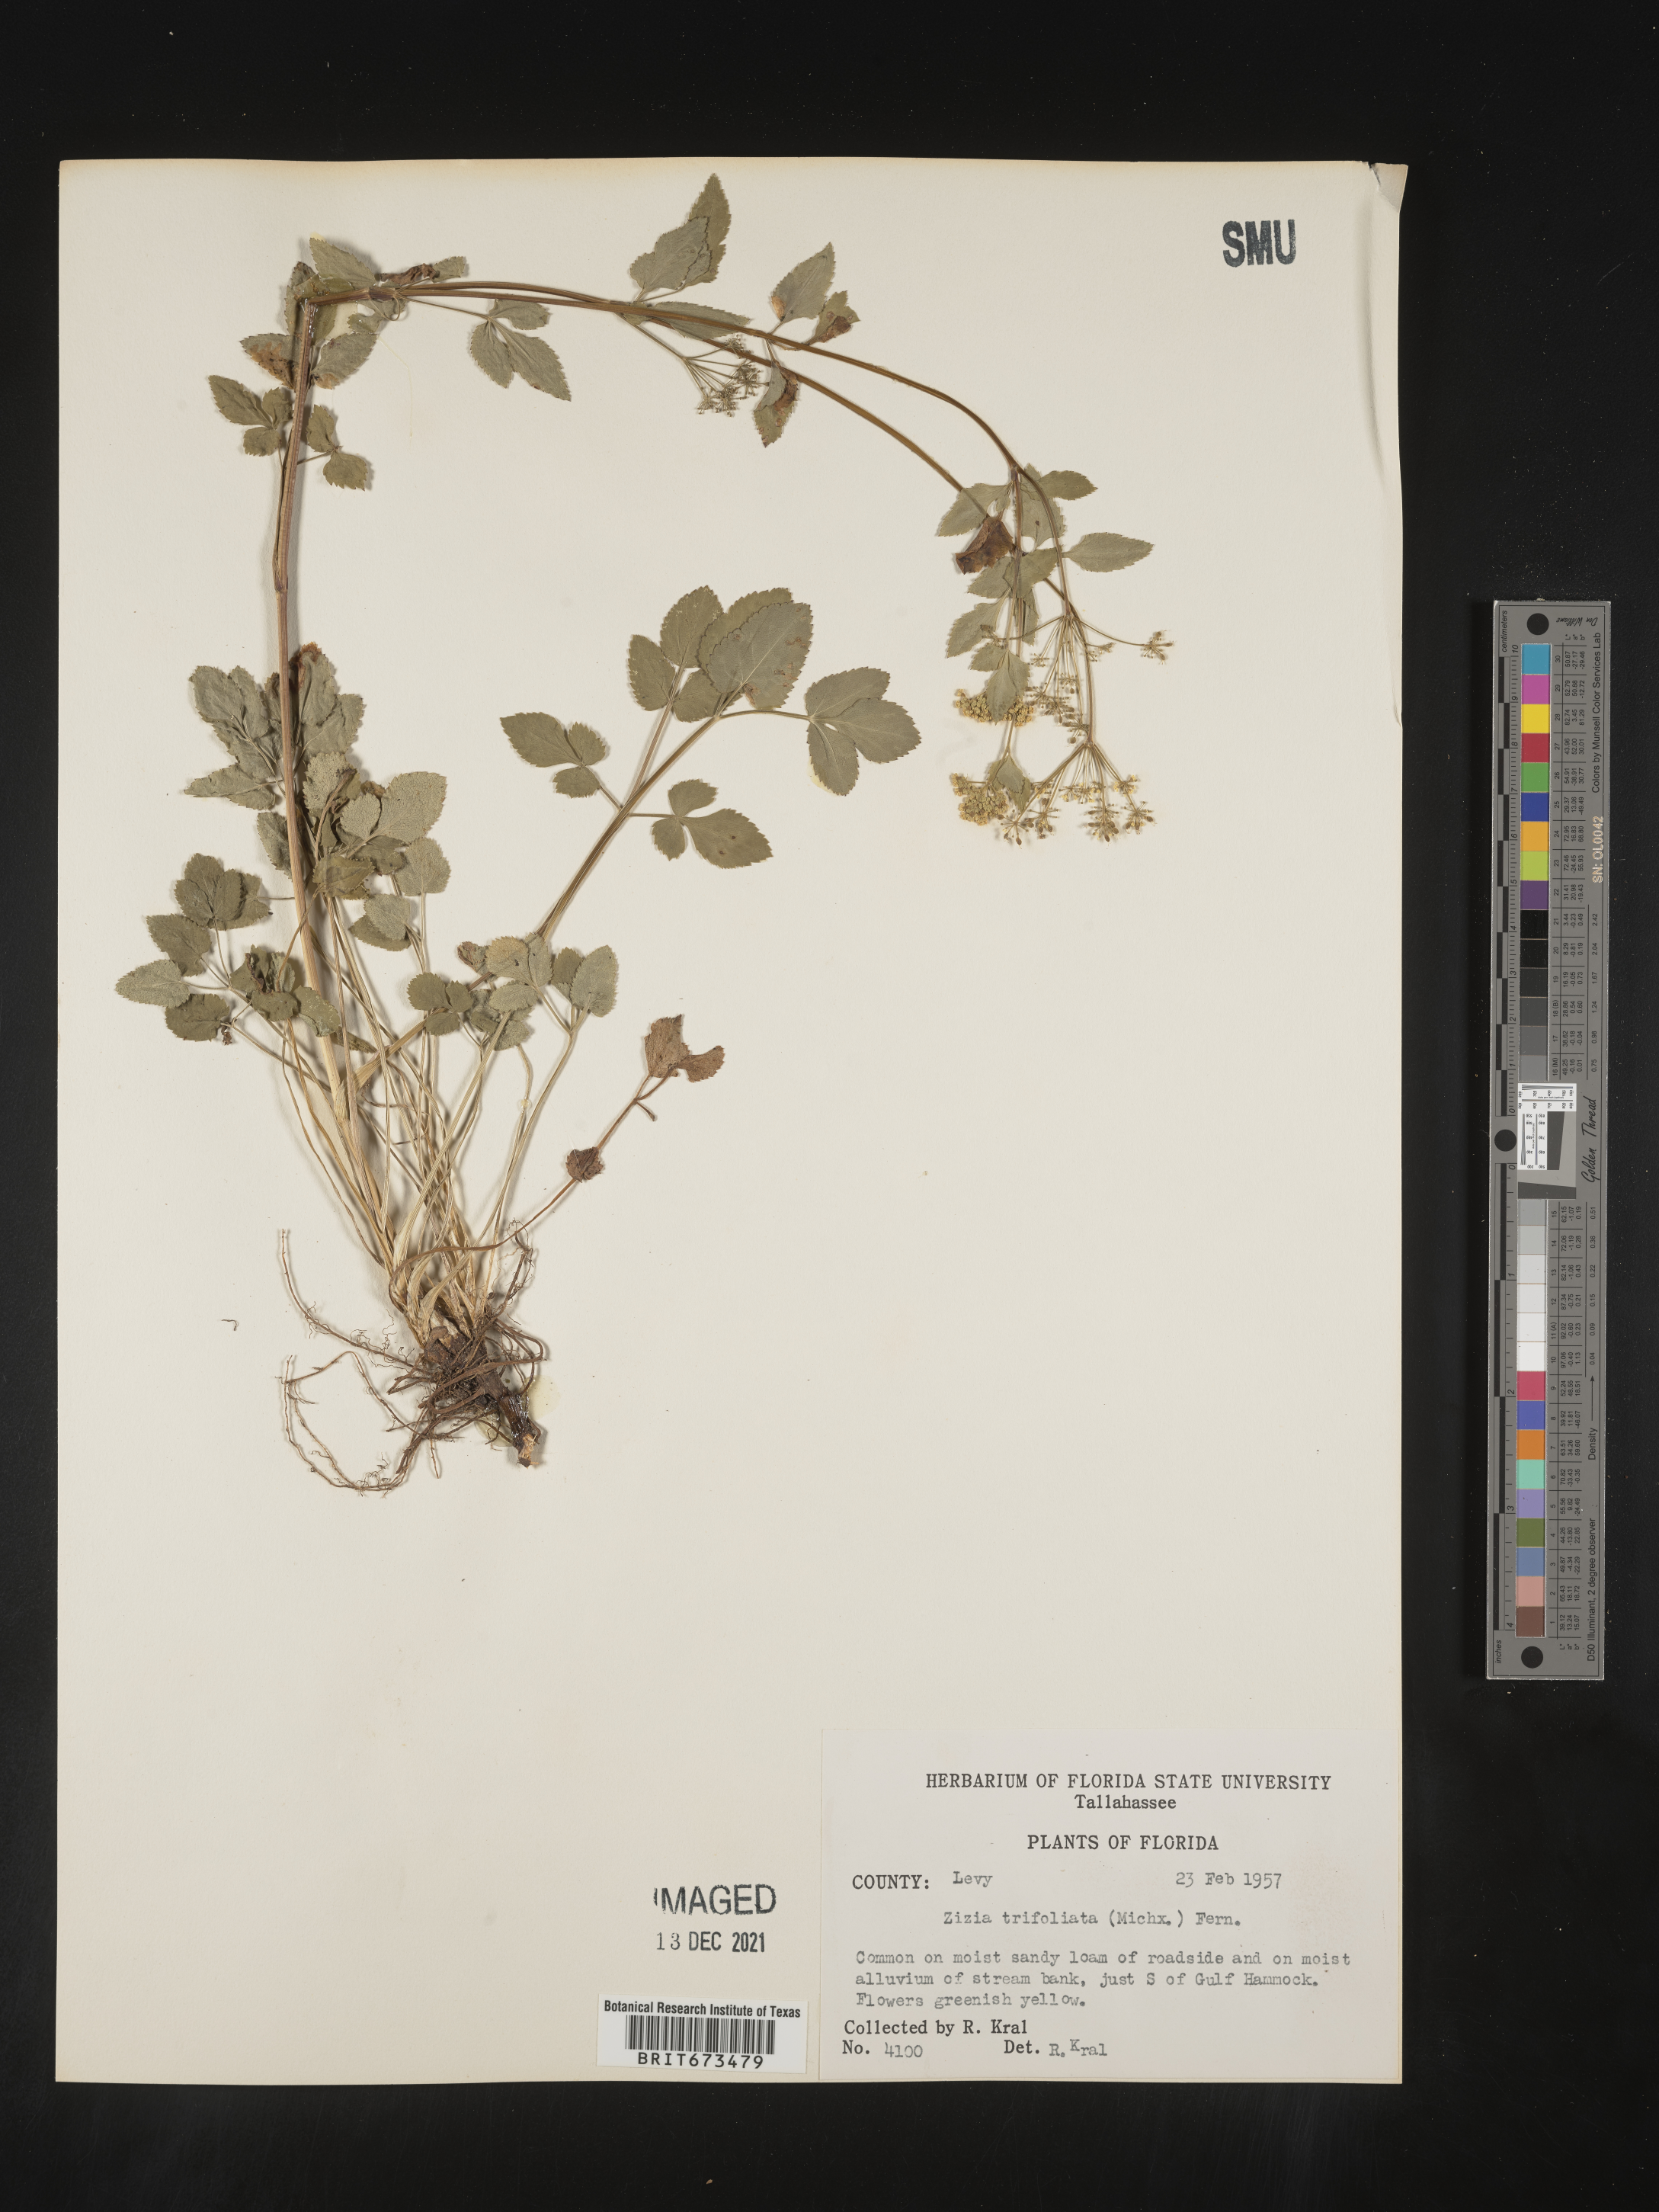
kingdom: Plantae
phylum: Tracheophyta
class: Magnoliopsida
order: Apiales
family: Apiaceae
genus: Zizia
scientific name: Zizia trifoliata
